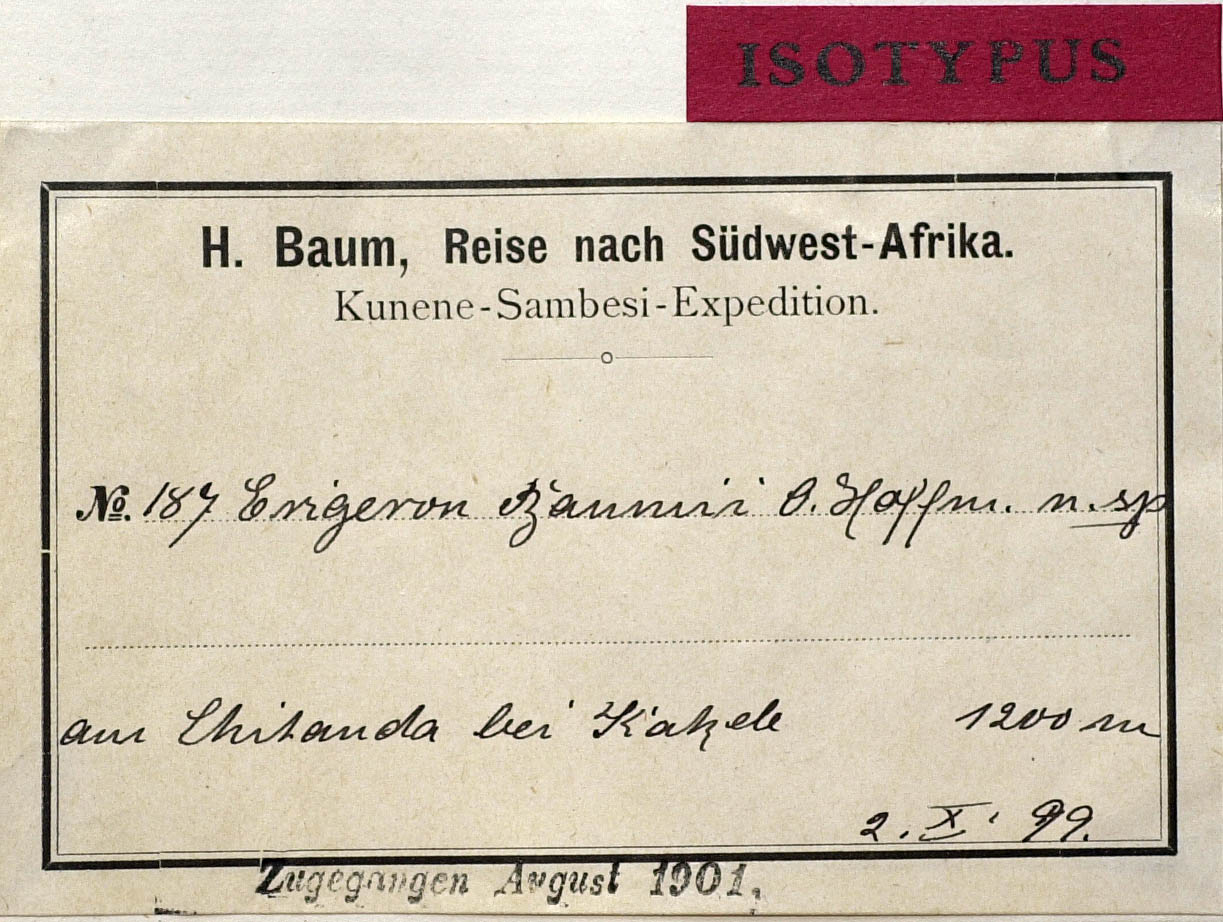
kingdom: Plantae
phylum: Tracheophyta
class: Magnoliopsida
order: Asterales
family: Asteraceae
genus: Conyza
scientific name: Conyza baumii
